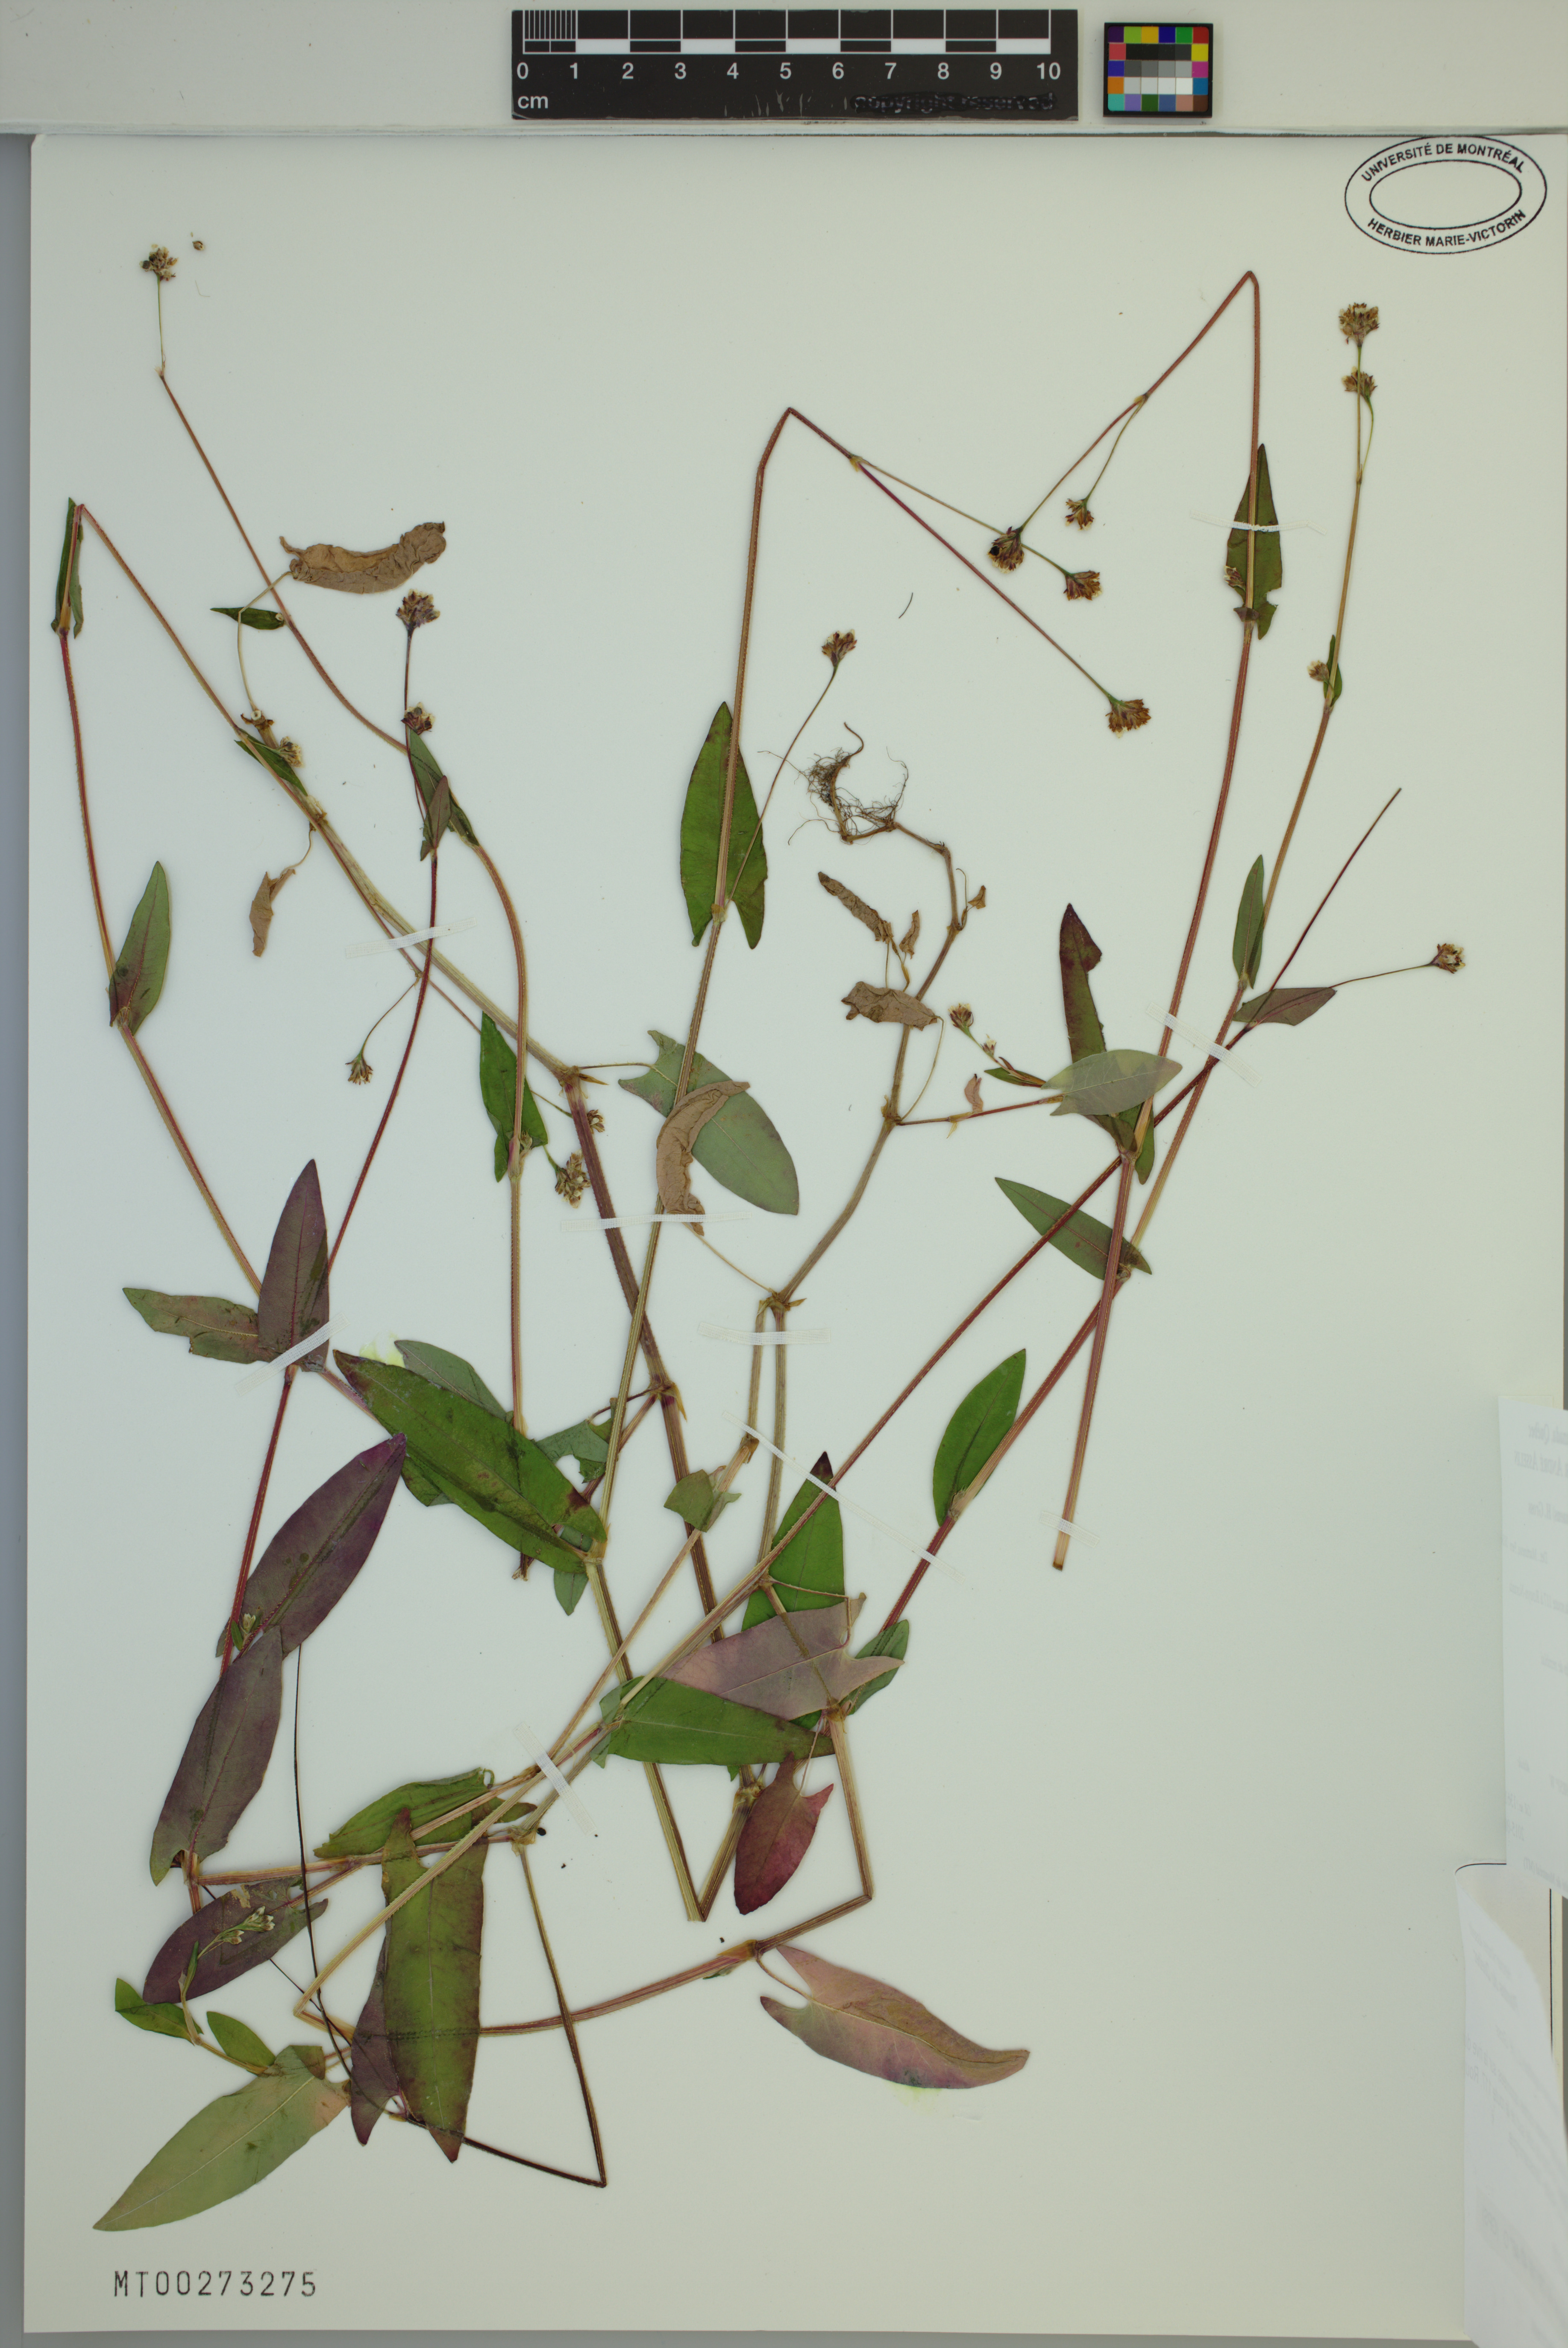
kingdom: Plantae
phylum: Tracheophyta
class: Magnoliopsida
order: Caryophyllales
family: Polygonaceae
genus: Persicaria
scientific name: Persicaria sagittata
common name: American tearthumb
